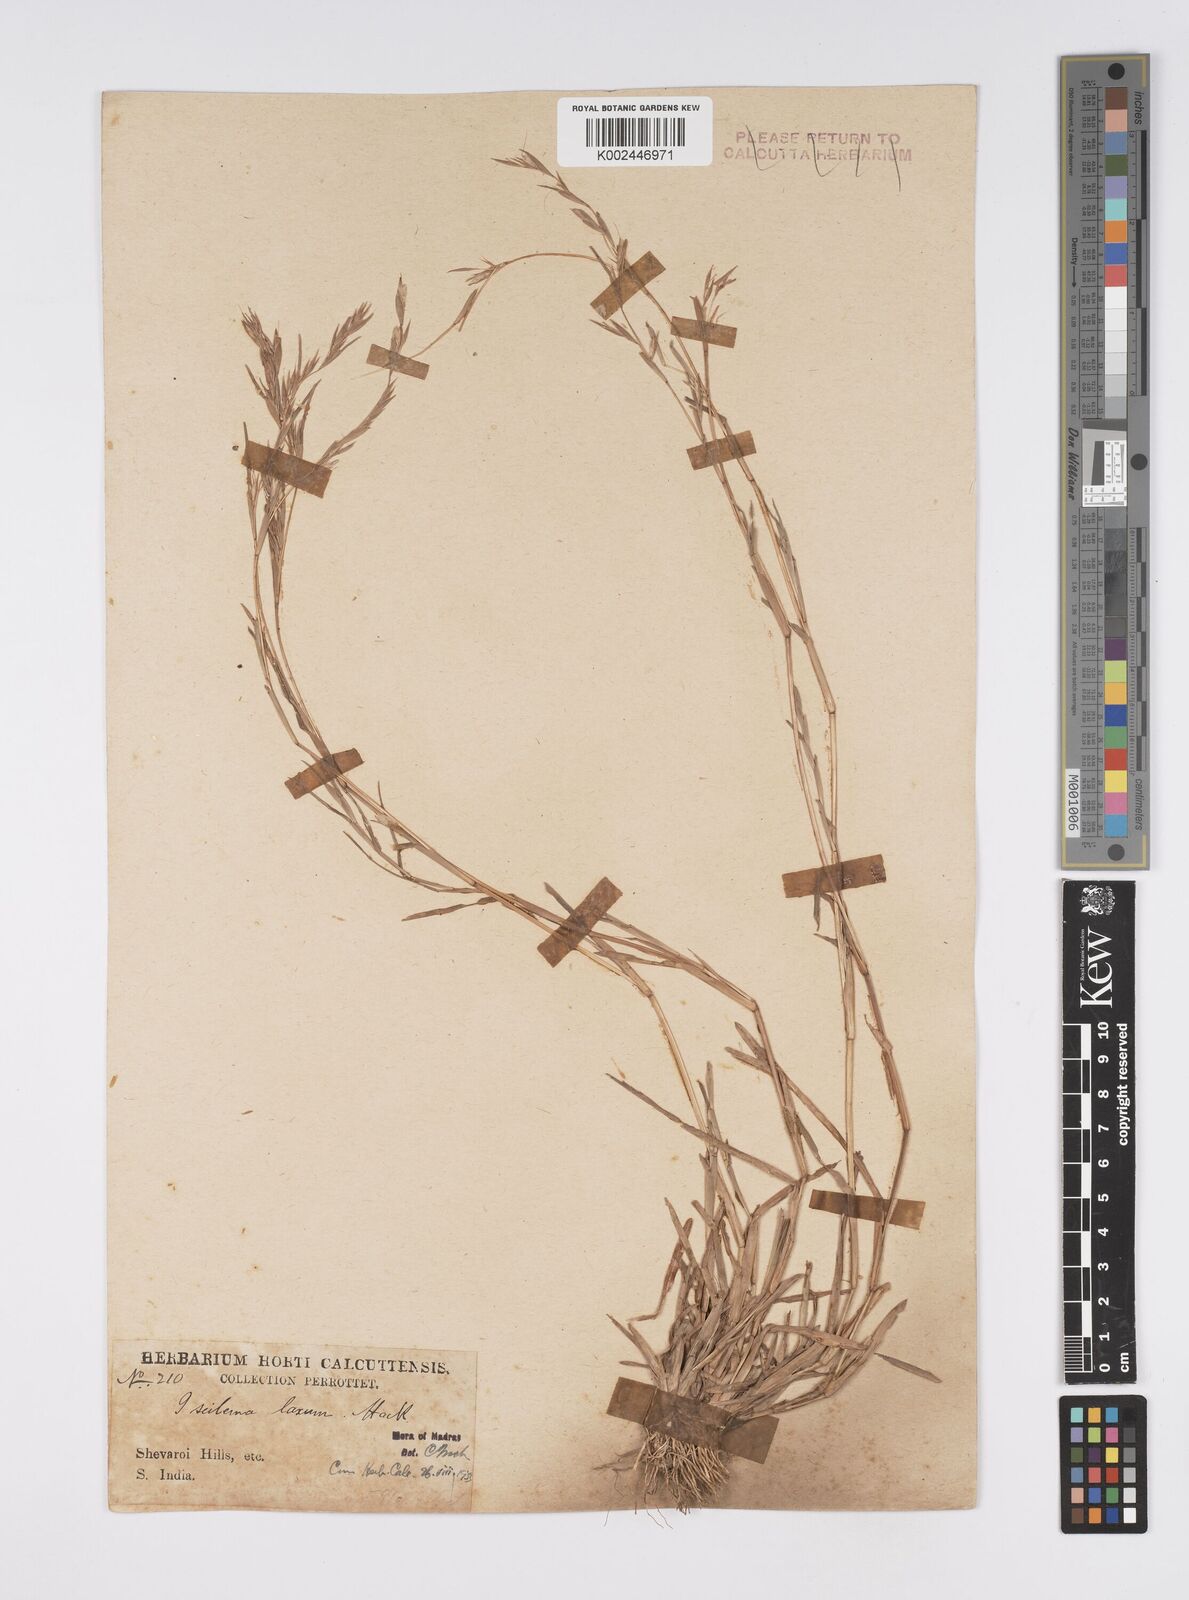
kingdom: Plantae
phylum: Tracheophyta
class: Liliopsida
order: Poales
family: Poaceae
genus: Iseilema
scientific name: Iseilema prostratum
